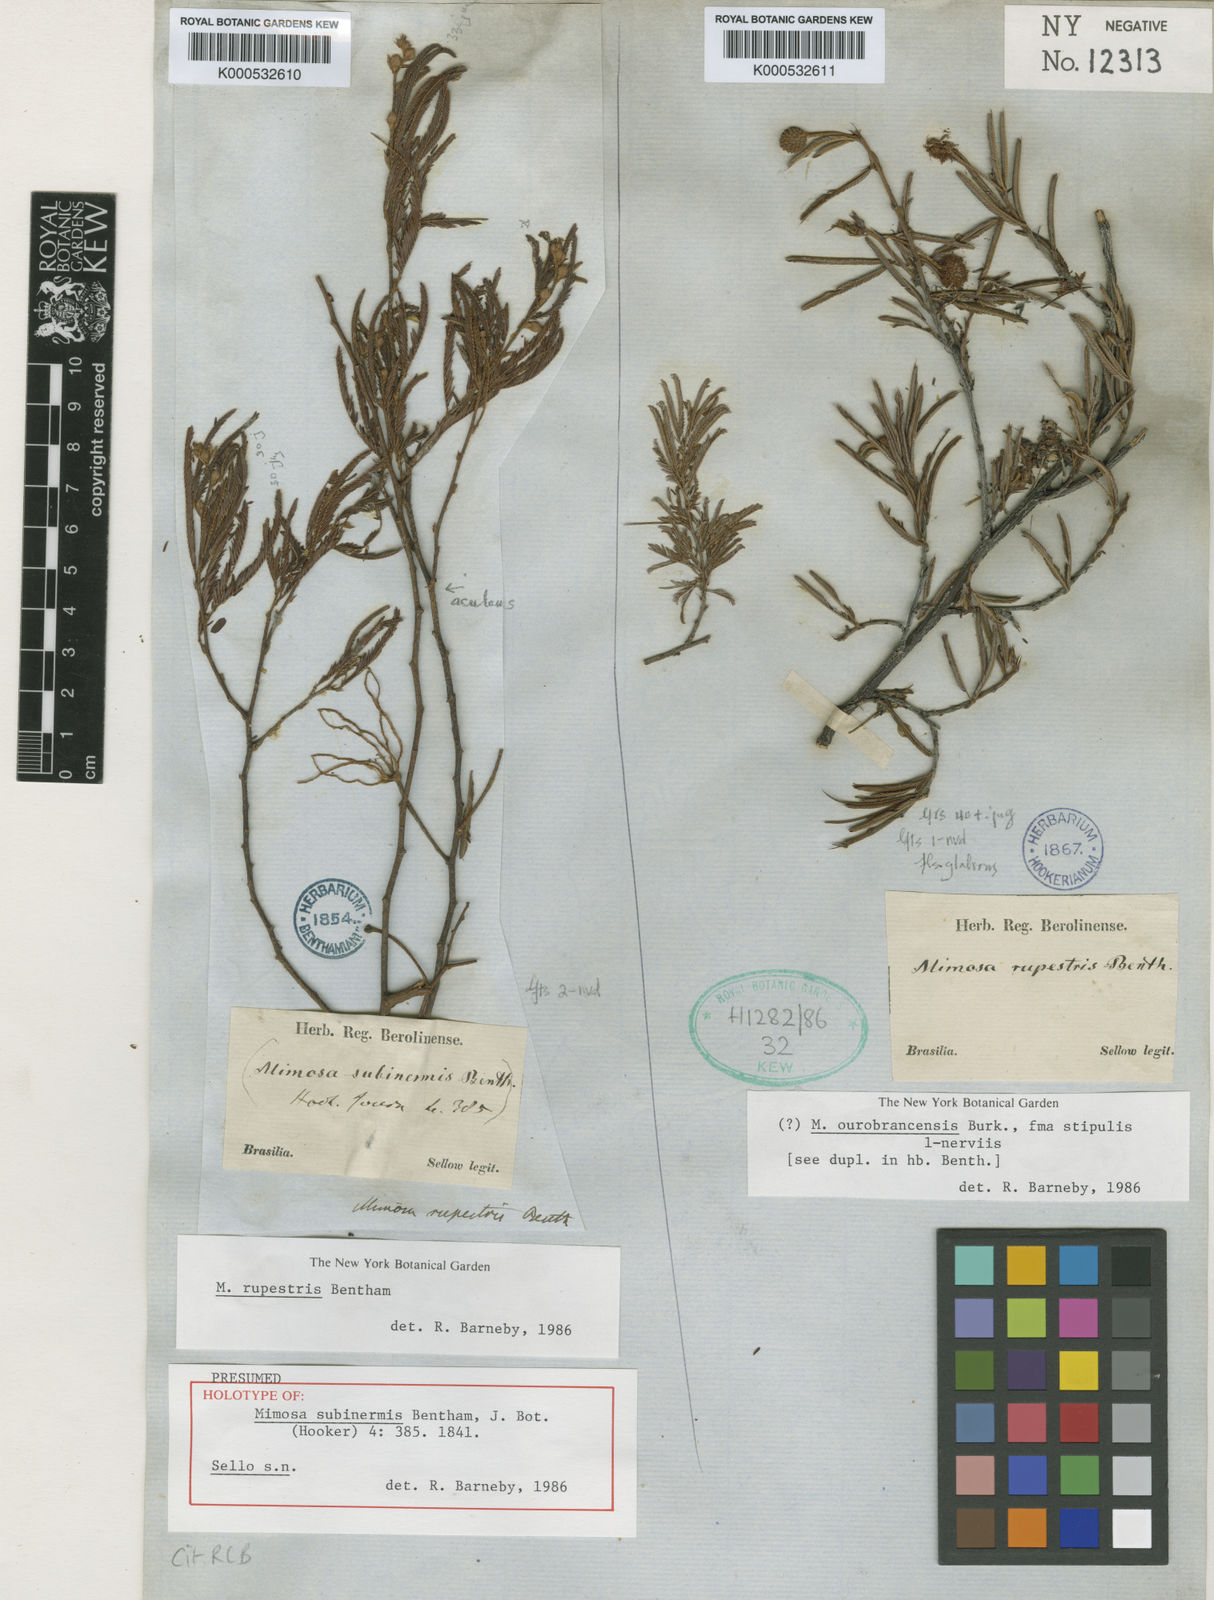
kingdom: Plantae
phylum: Tracheophyta
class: Magnoliopsida
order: Fabales
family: Fabaceae
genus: Mimosa
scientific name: Mimosa rupestris
